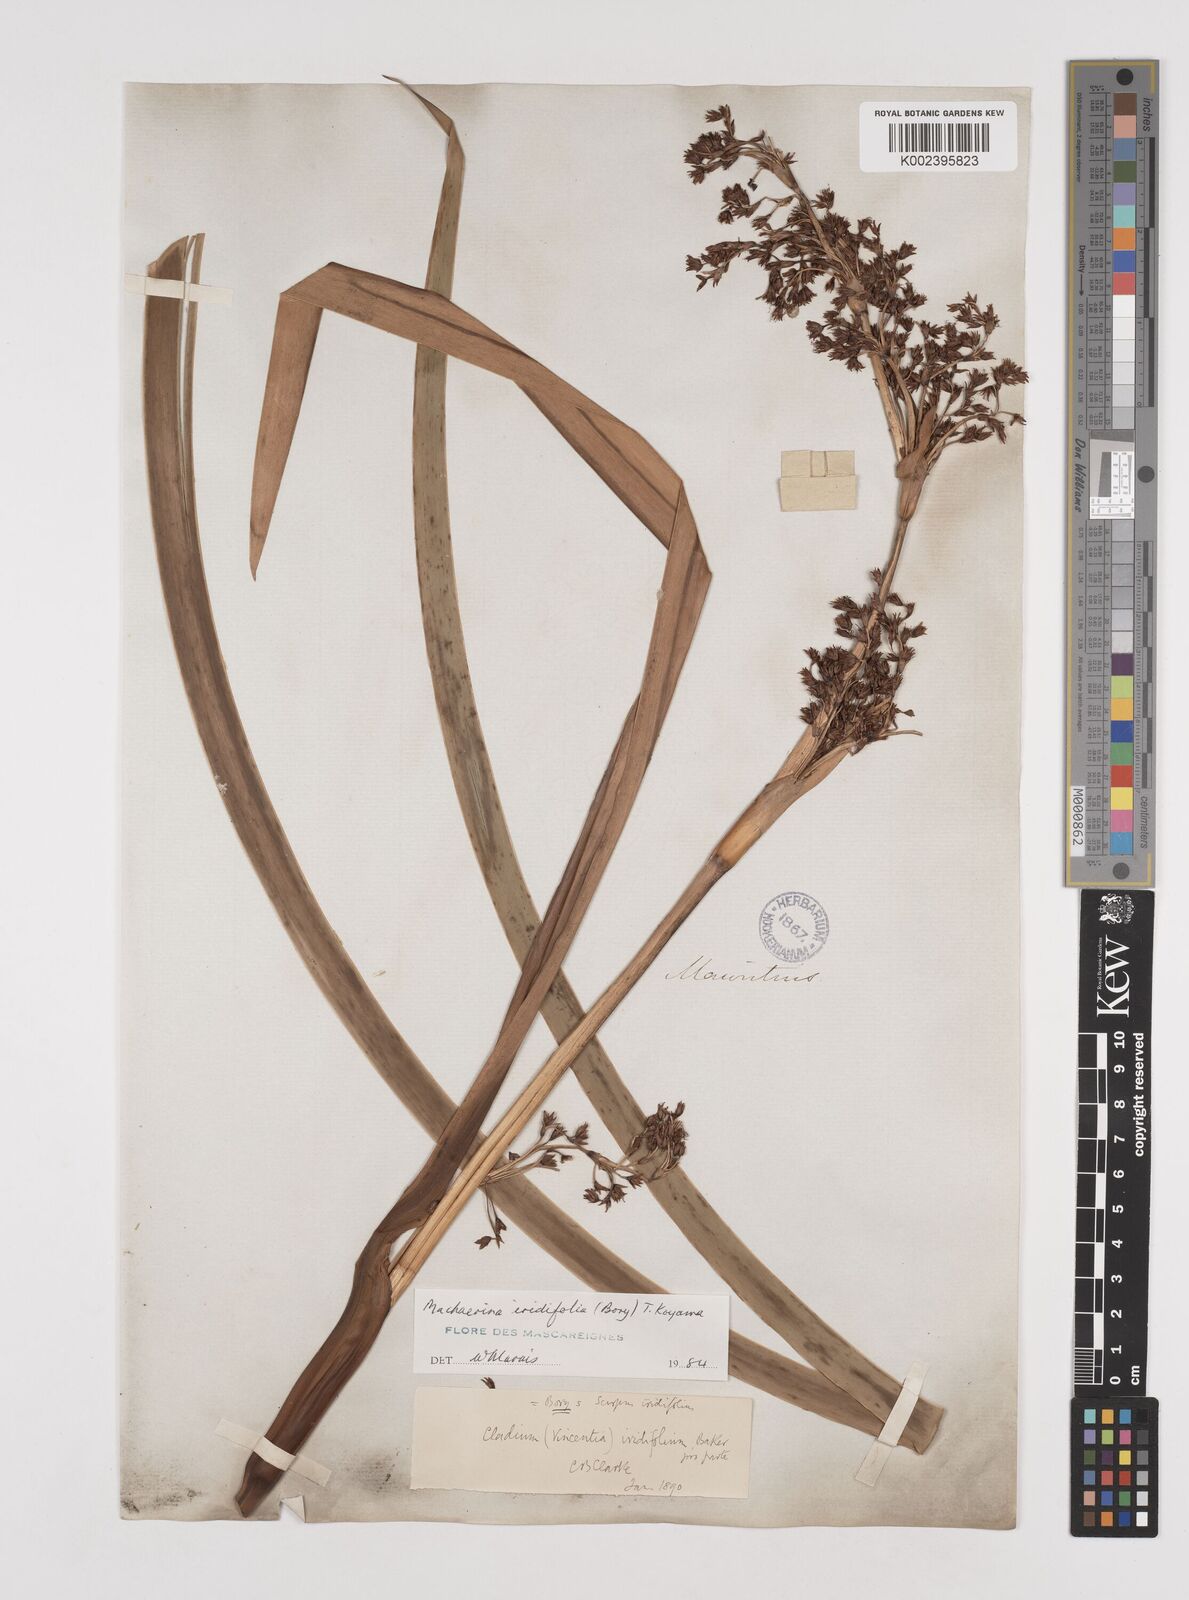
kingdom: Plantae
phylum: Tracheophyta
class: Liliopsida
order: Poales
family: Cyperaceae
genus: Machaerina
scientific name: Machaerina iridifolia
